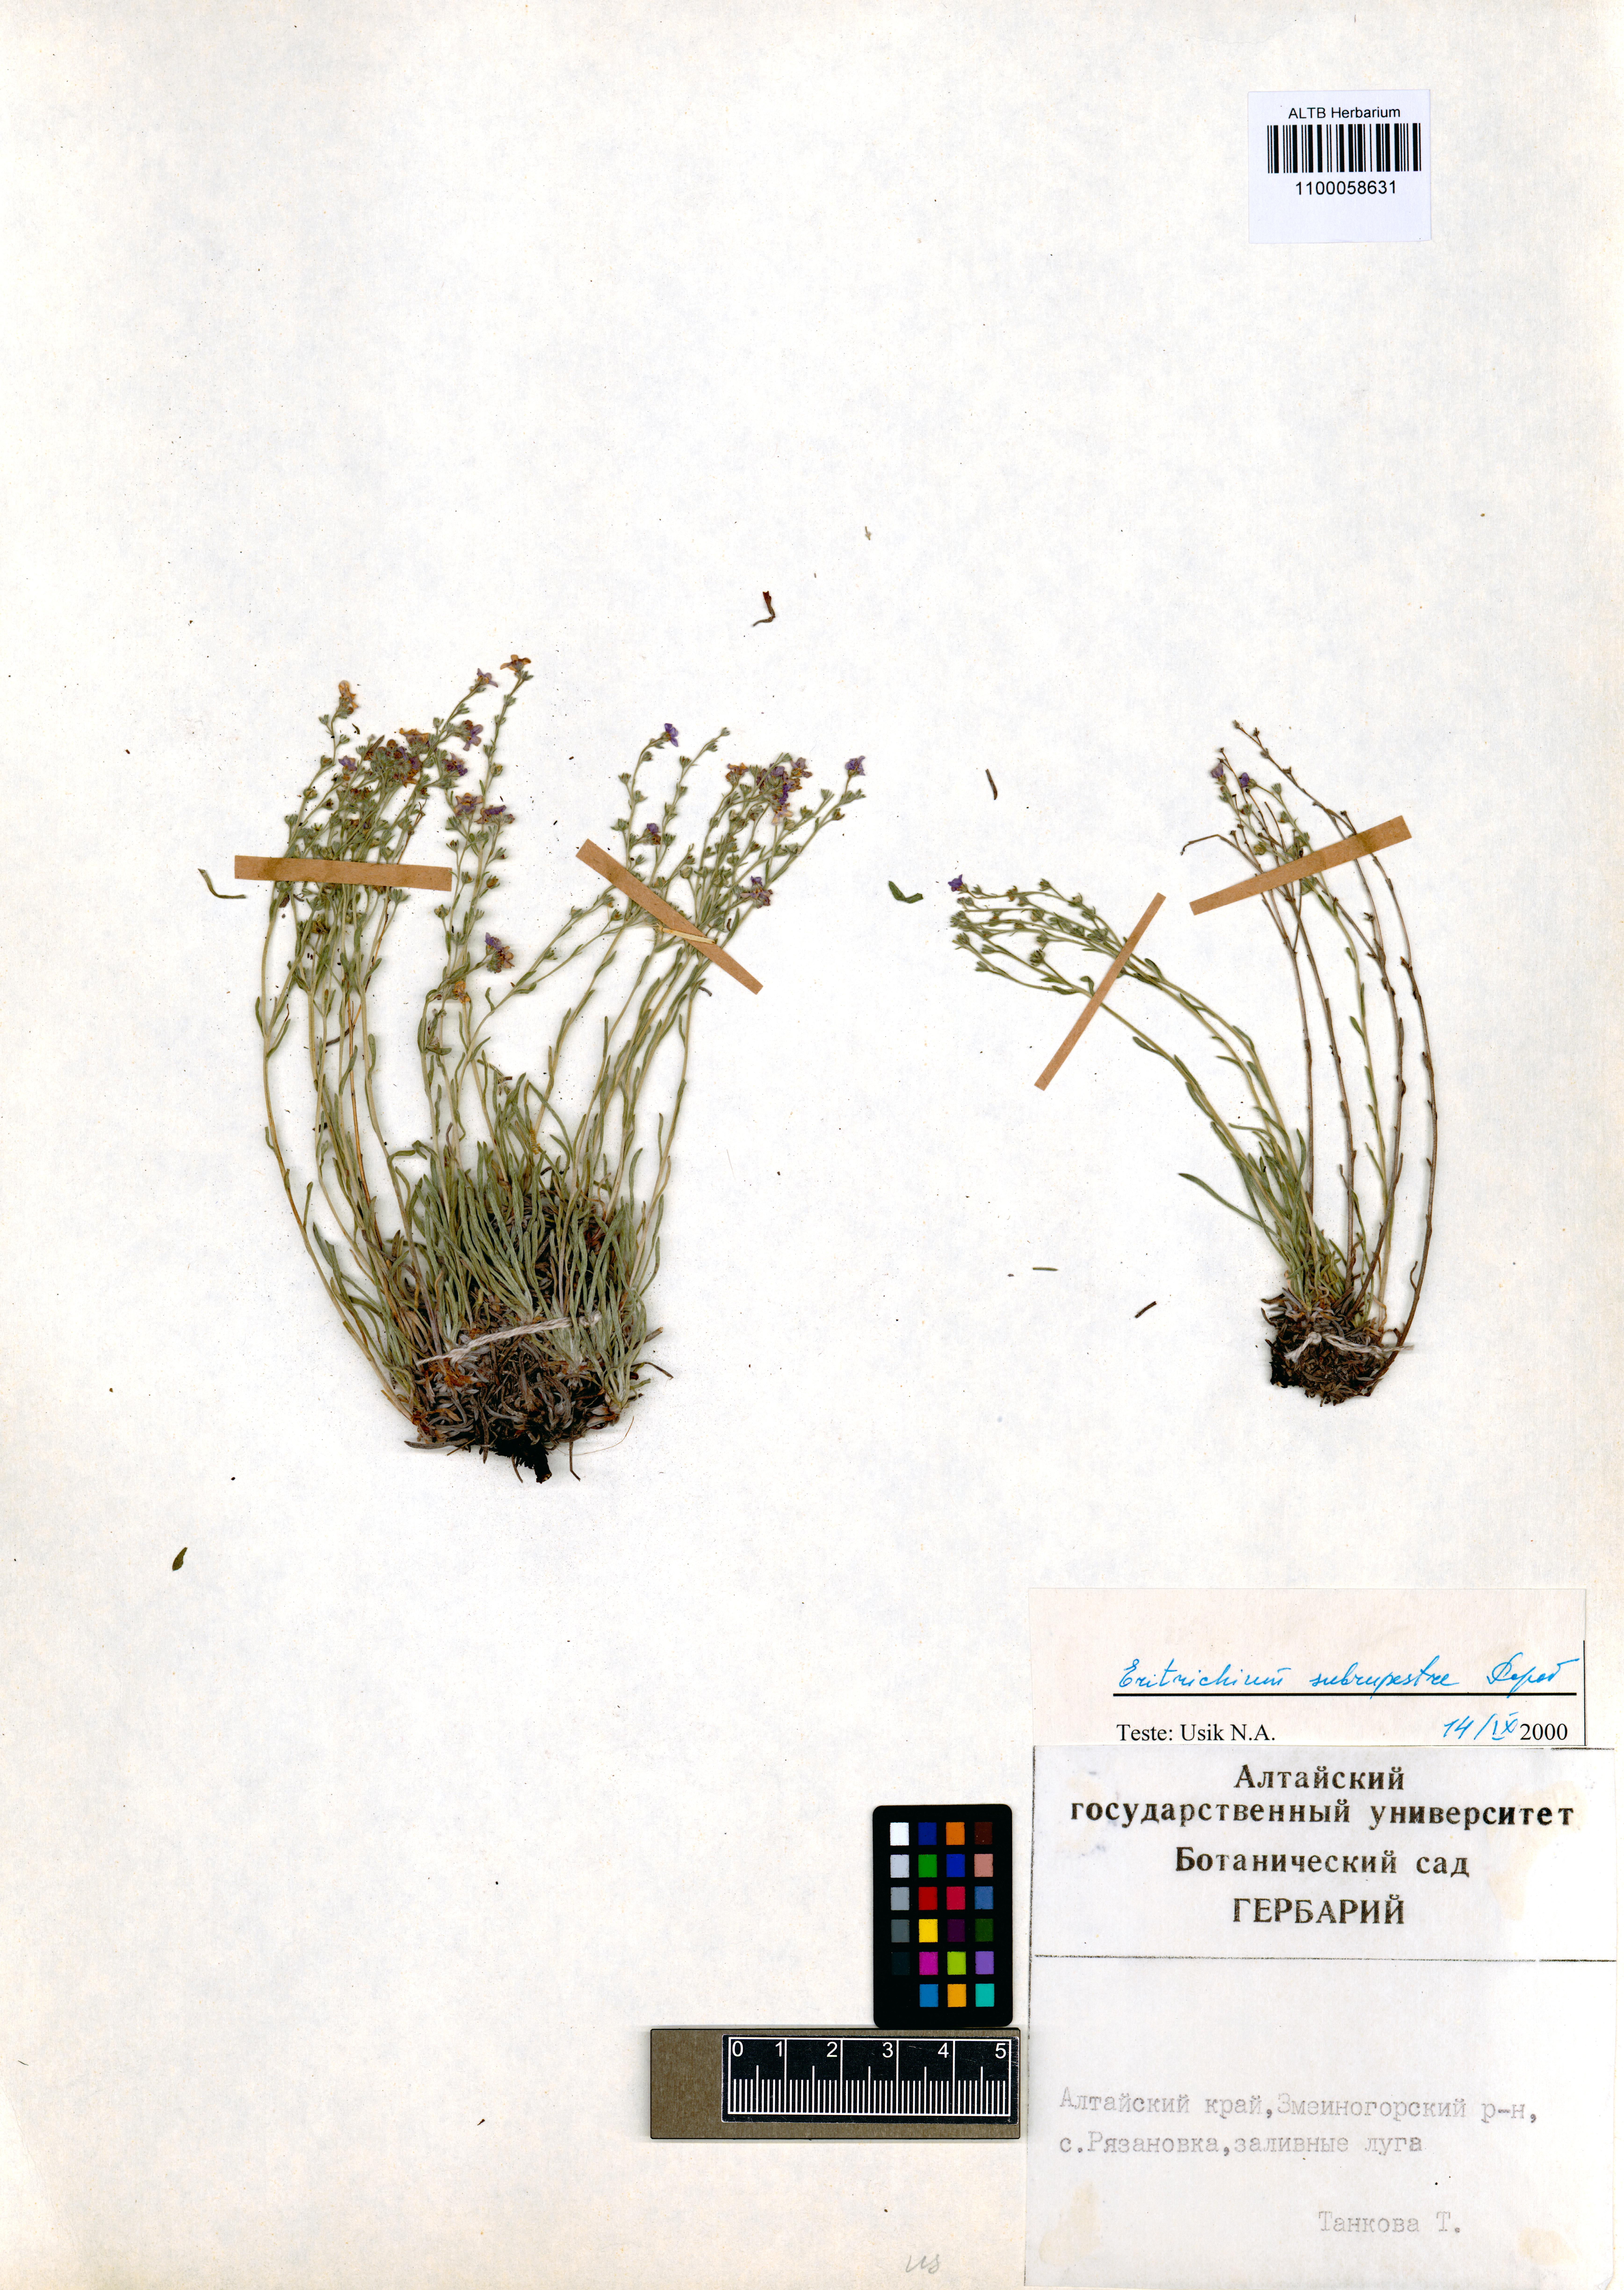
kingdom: Plantae
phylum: Tracheophyta
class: Magnoliopsida
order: Boraginales
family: Boraginaceae
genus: Eritrichium
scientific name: Eritrichium pauciflorum
